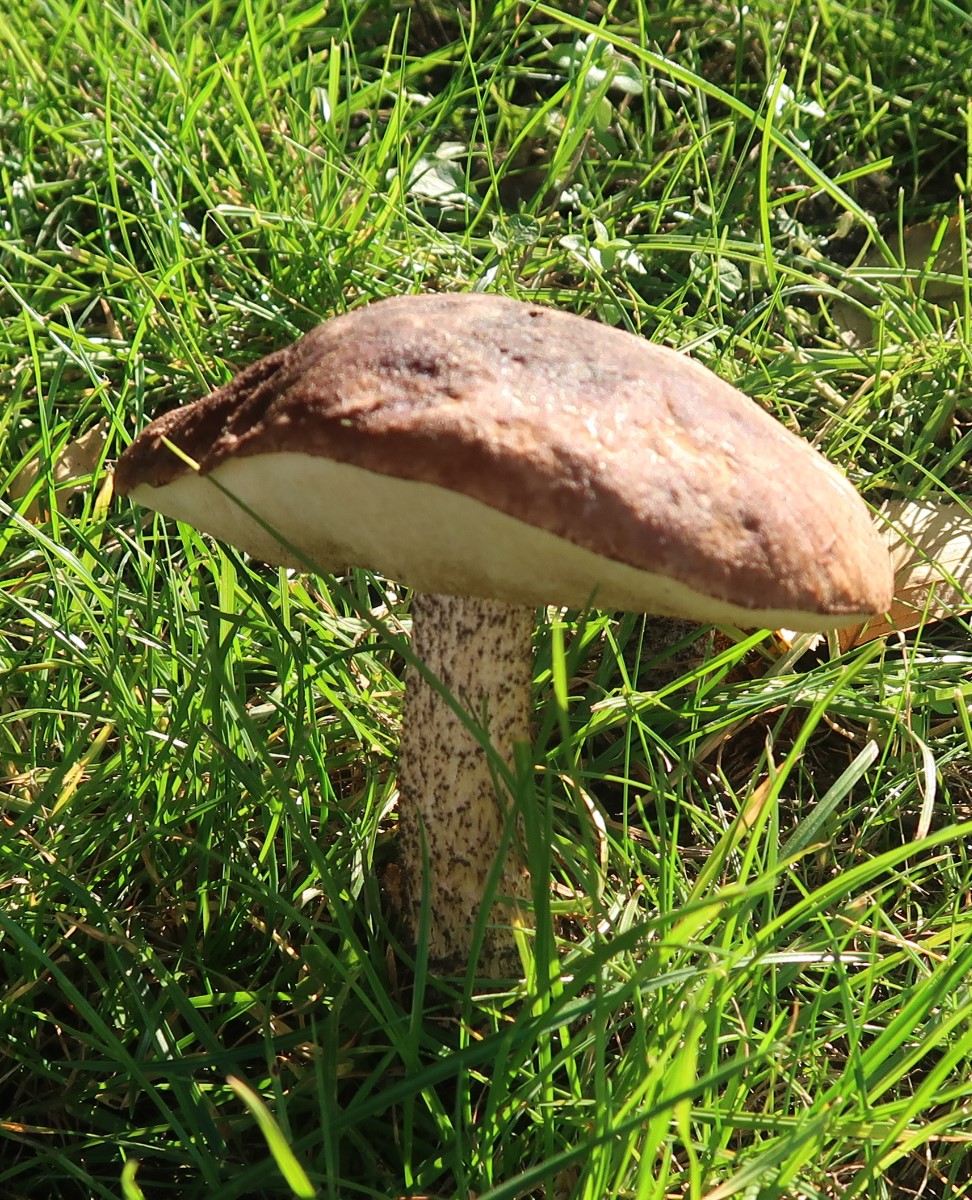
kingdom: Fungi
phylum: Basidiomycota
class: Agaricomycetes
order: Boletales
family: Boletaceae
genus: Leccinum
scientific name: Leccinum scabrum
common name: brun skælrørhat
